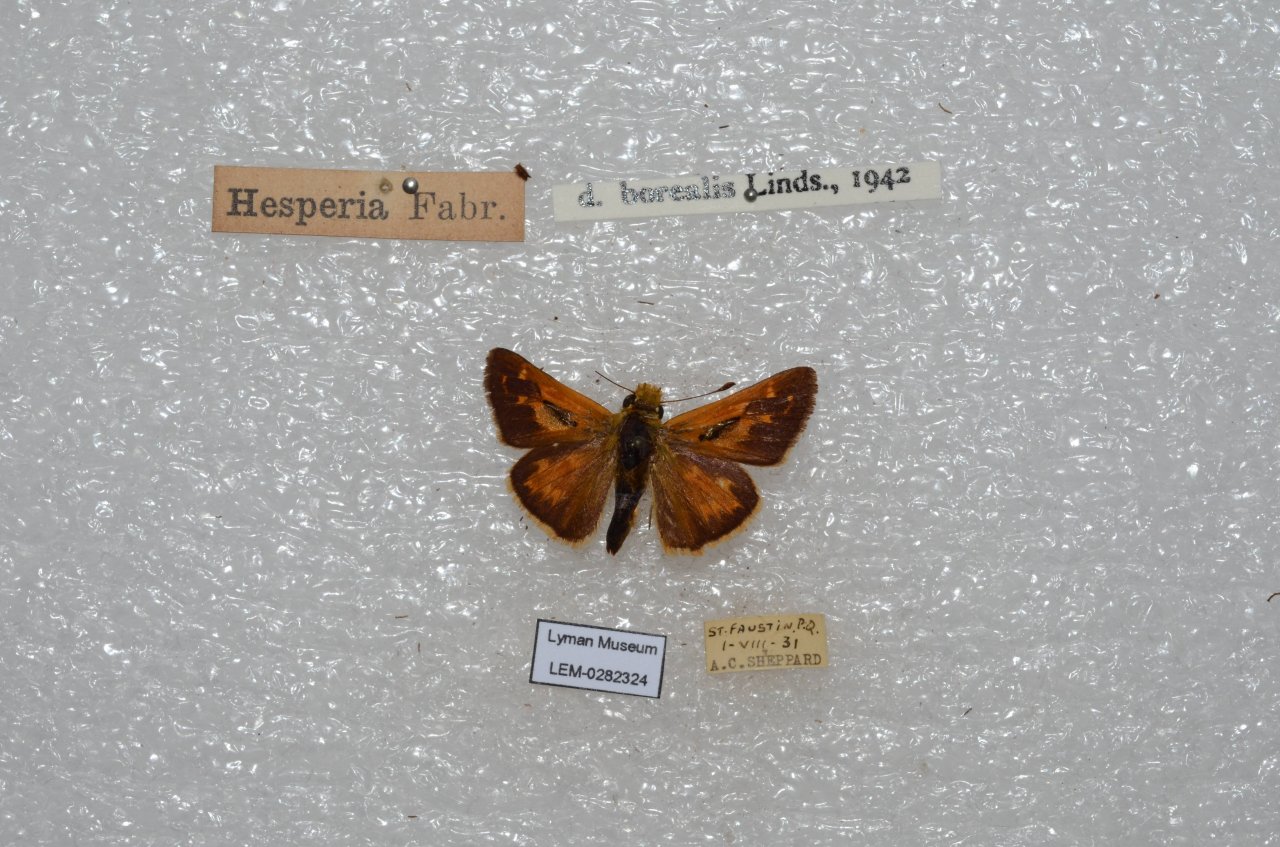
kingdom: Animalia
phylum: Arthropoda
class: Insecta
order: Lepidoptera
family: Hesperiidae
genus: Hesperia
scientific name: Hesperia comma
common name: Common Branded Skipper
